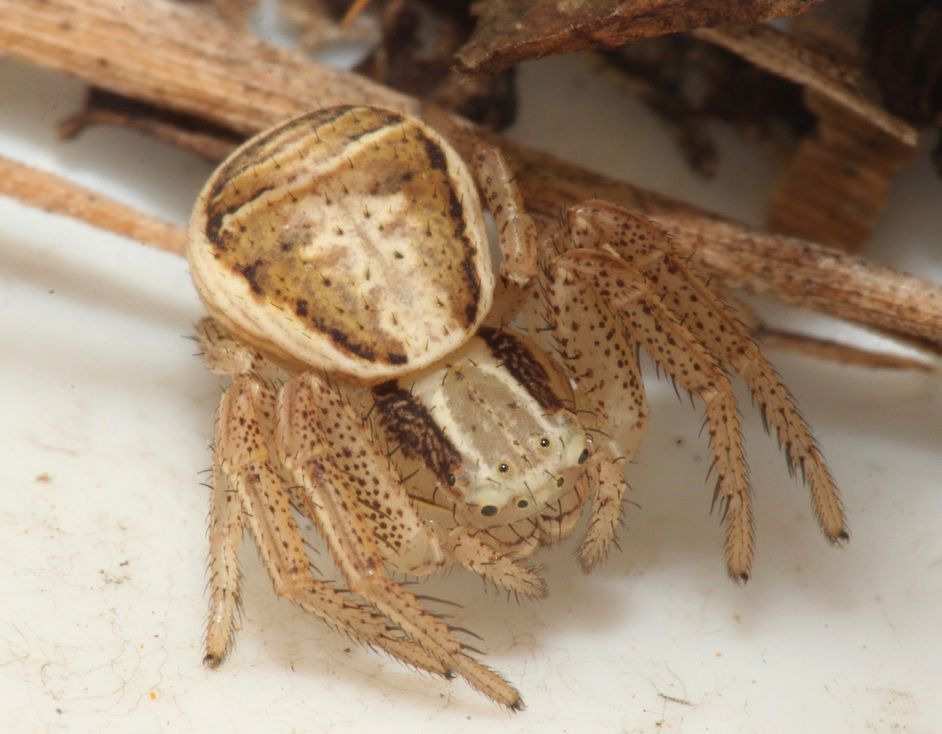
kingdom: Animalia
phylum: Arthropoda
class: Arachnida
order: Araneae
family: Thomisidae
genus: Xysticus
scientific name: Xysticus ulmi
